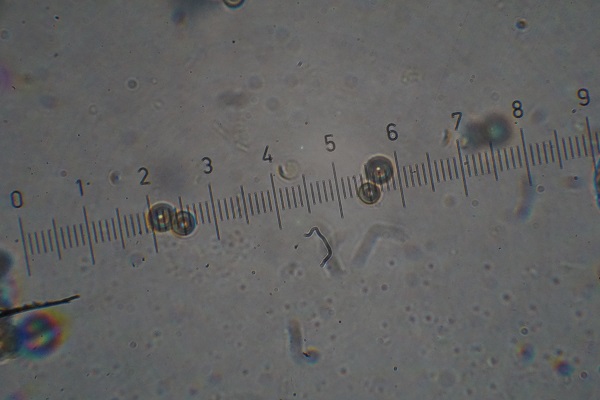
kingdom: Fungi
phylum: Basidiomycota
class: Agaricomycetes
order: Agaricales
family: Lycoperdaceae
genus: Apioperdon
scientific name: Apioperdon pyriforme
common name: pære-støvbold
